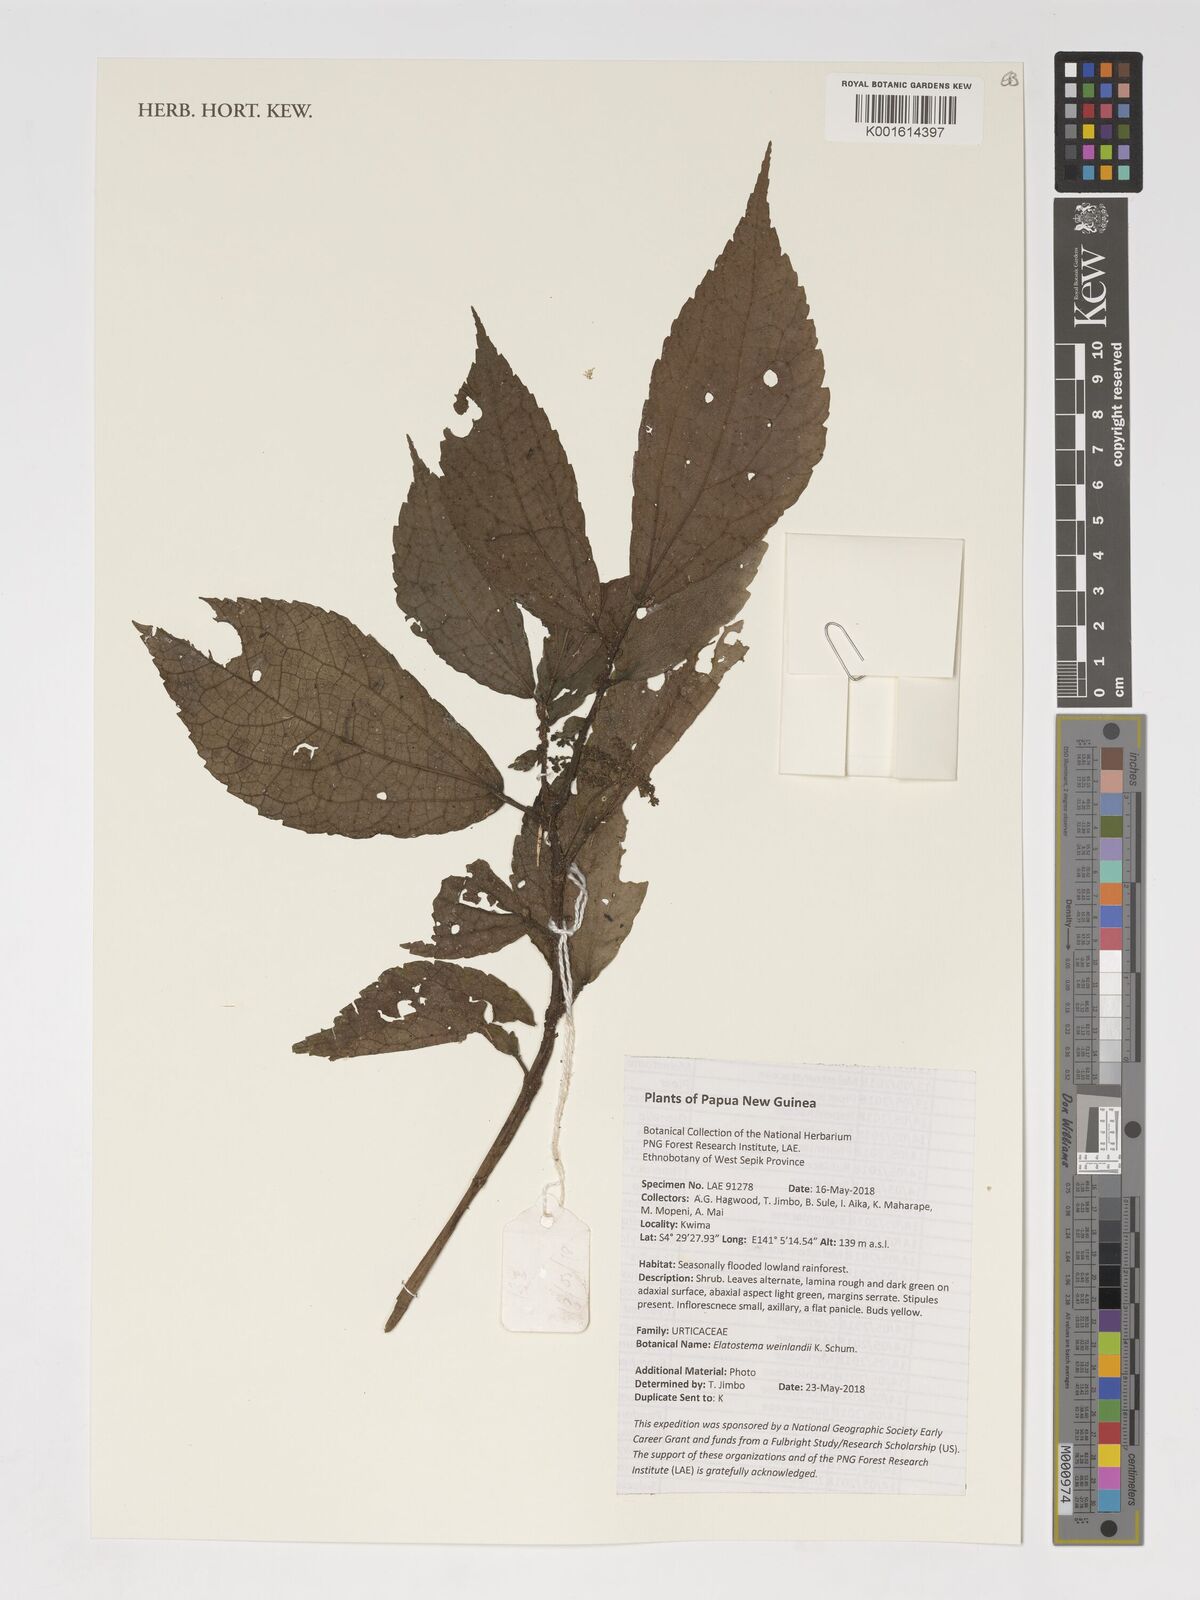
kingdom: Plantae
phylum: Tracheophyta
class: Magnoliopsida
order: Rosales
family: Urticaceae
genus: Elatostema
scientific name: Elatostema weinlandii
